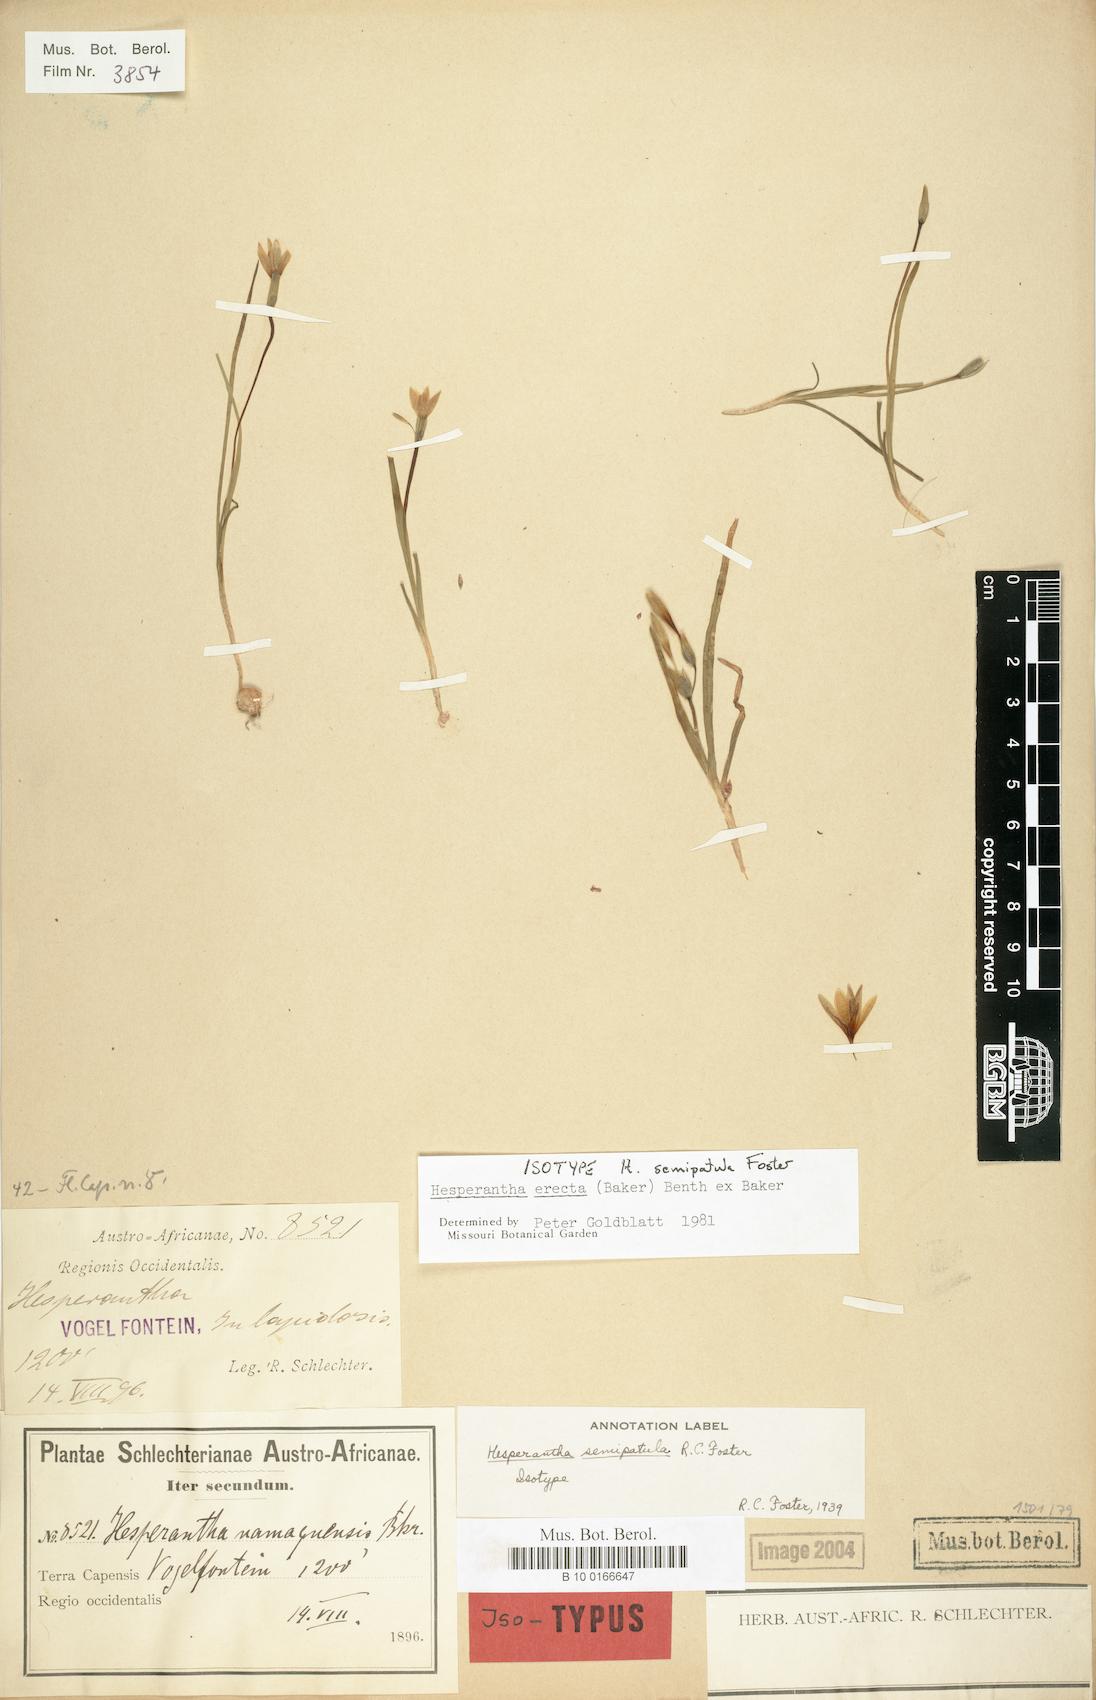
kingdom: Plantae
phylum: Tracheophyta
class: Liliopsida
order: Asparagales
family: Iridaceae
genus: Hesperantha
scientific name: Hesperantha erecta
